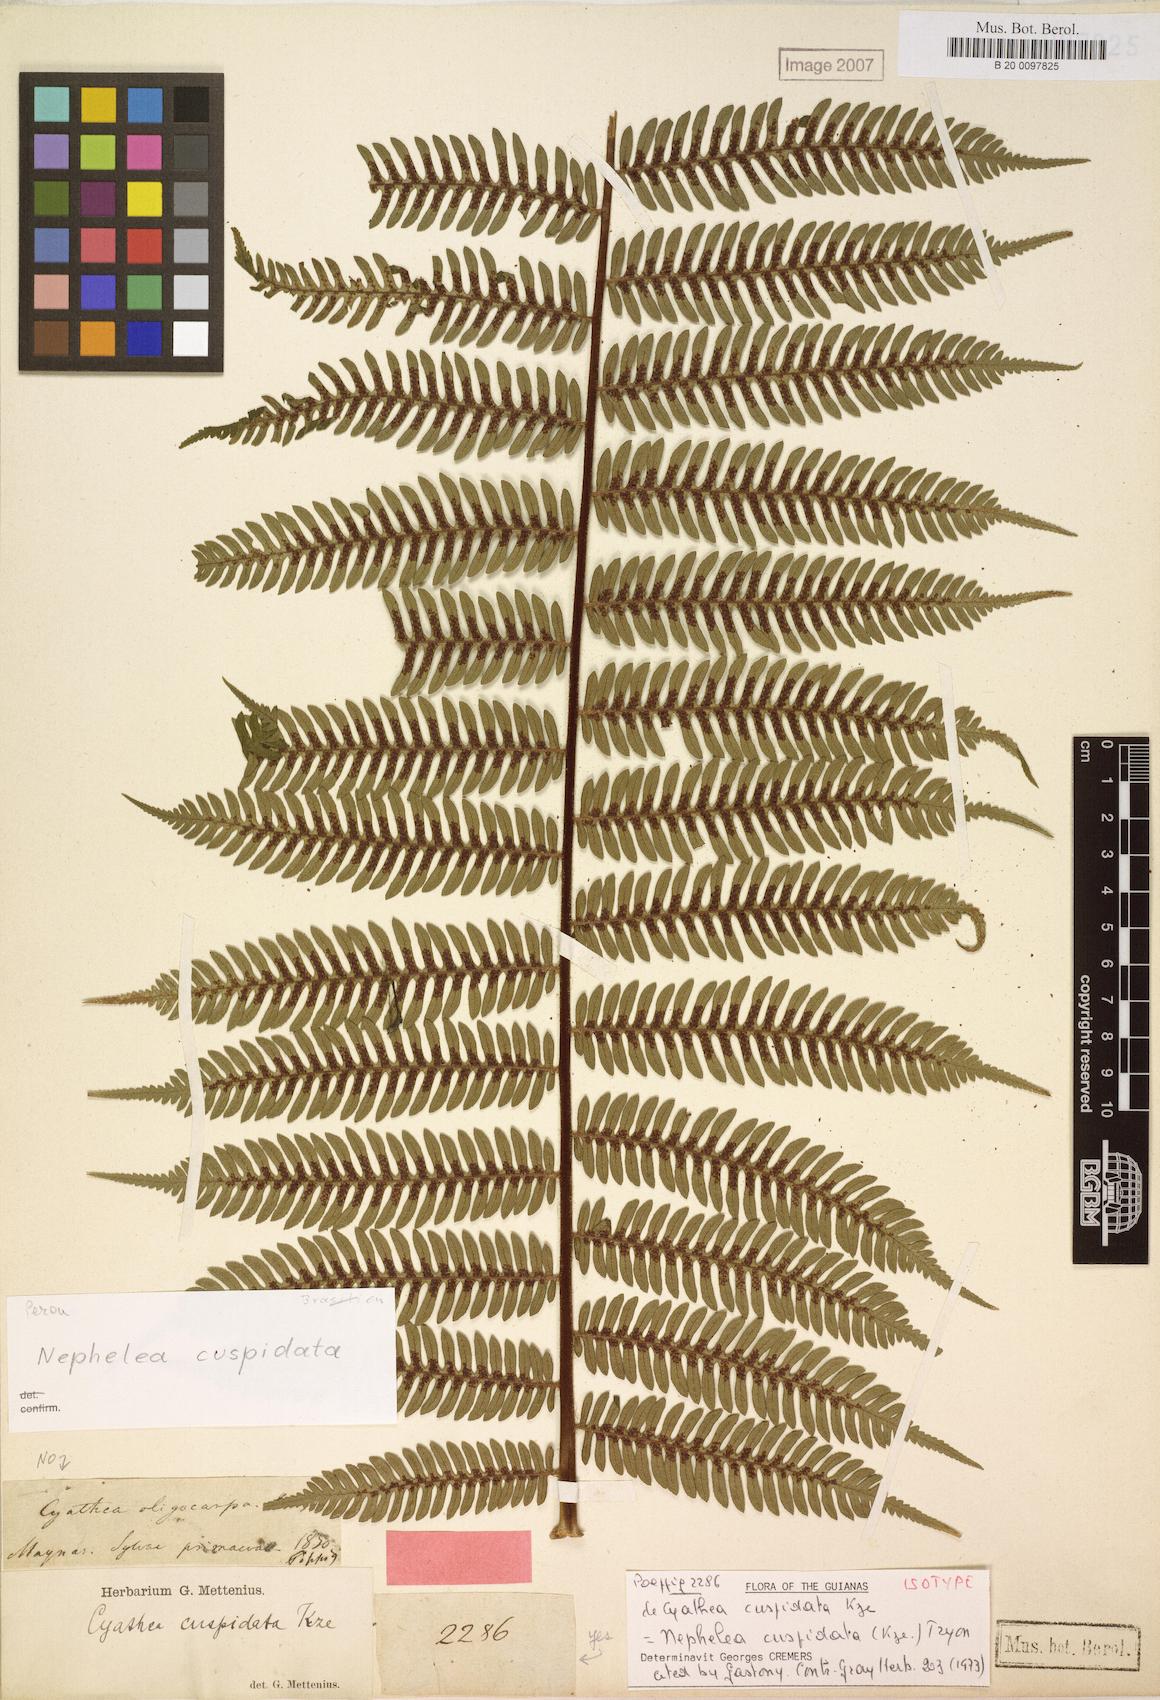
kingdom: Plantae
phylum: Tracheophyta
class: Polypodiopsida
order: Cyatheales
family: Cyatheaceae
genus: Alsophila
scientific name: Alsophila cuspidata
